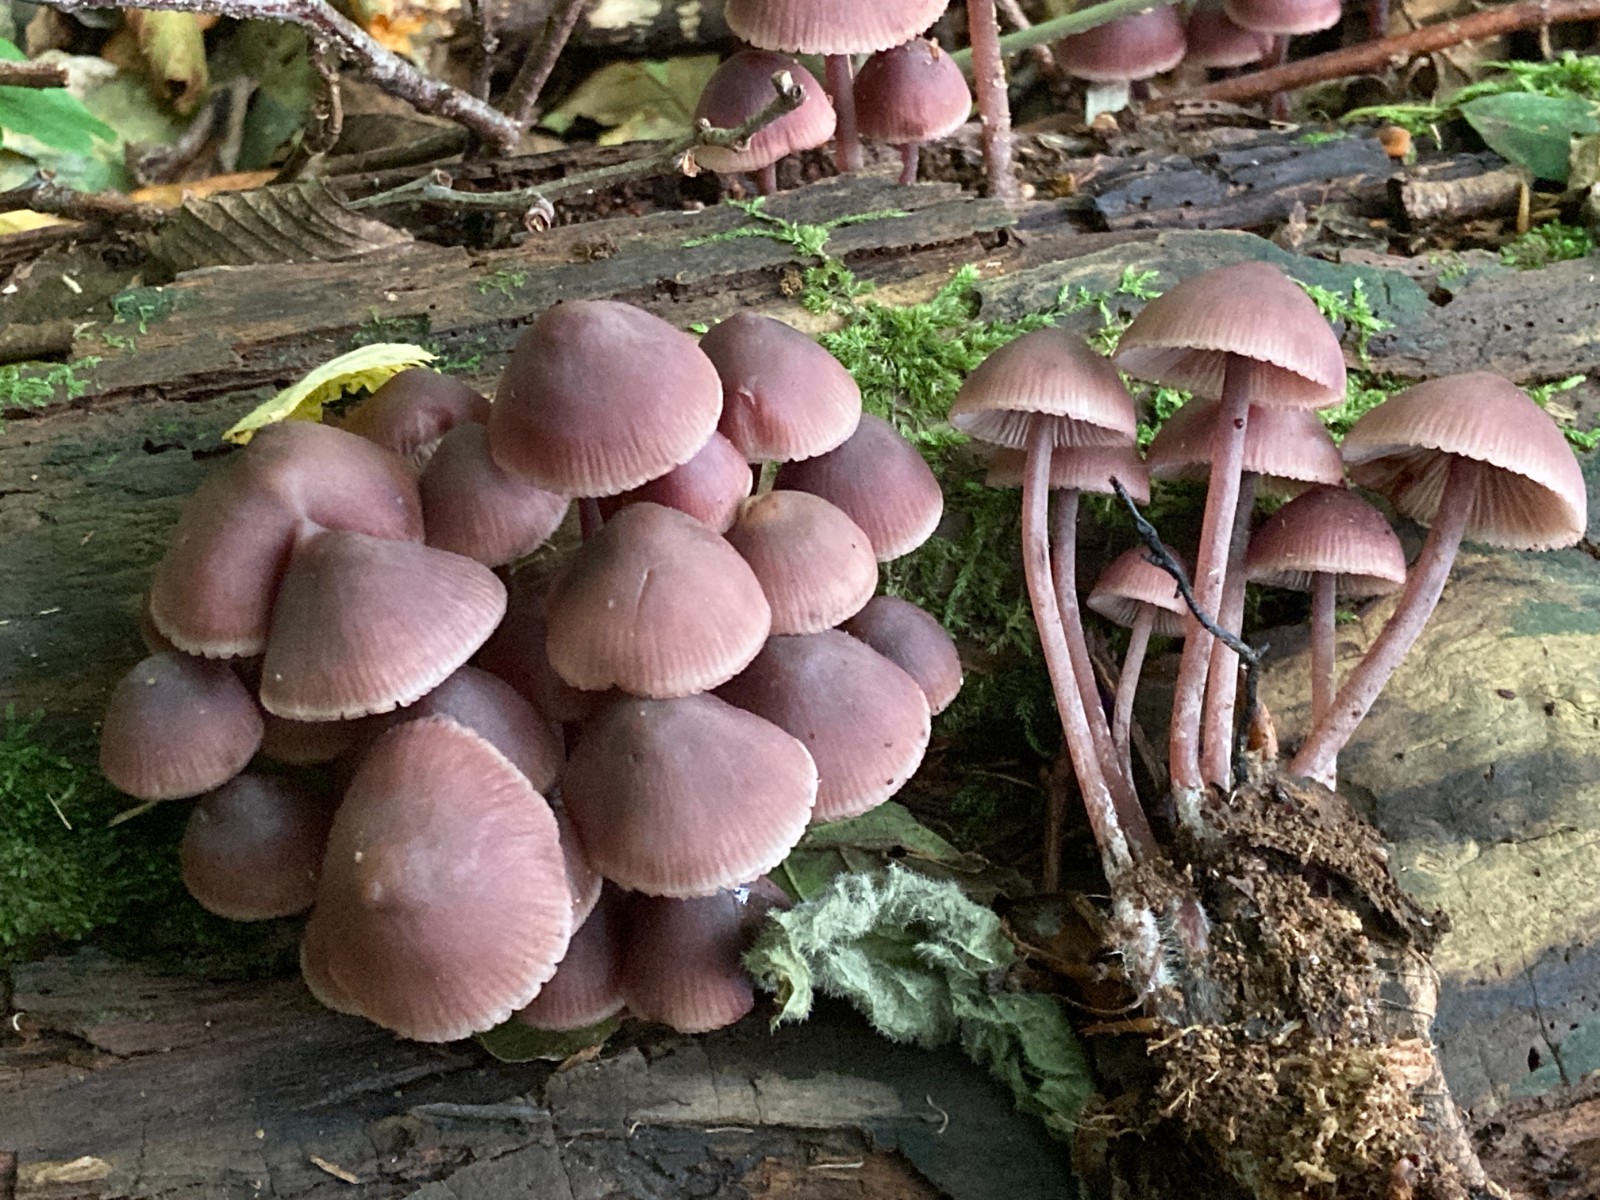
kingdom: Fungi
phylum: Basidiomycota
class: Agaricomycetes
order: Agaricales
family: Mycenaceae
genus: Mycena
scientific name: Mycena haematopus
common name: blødende huesvamp
